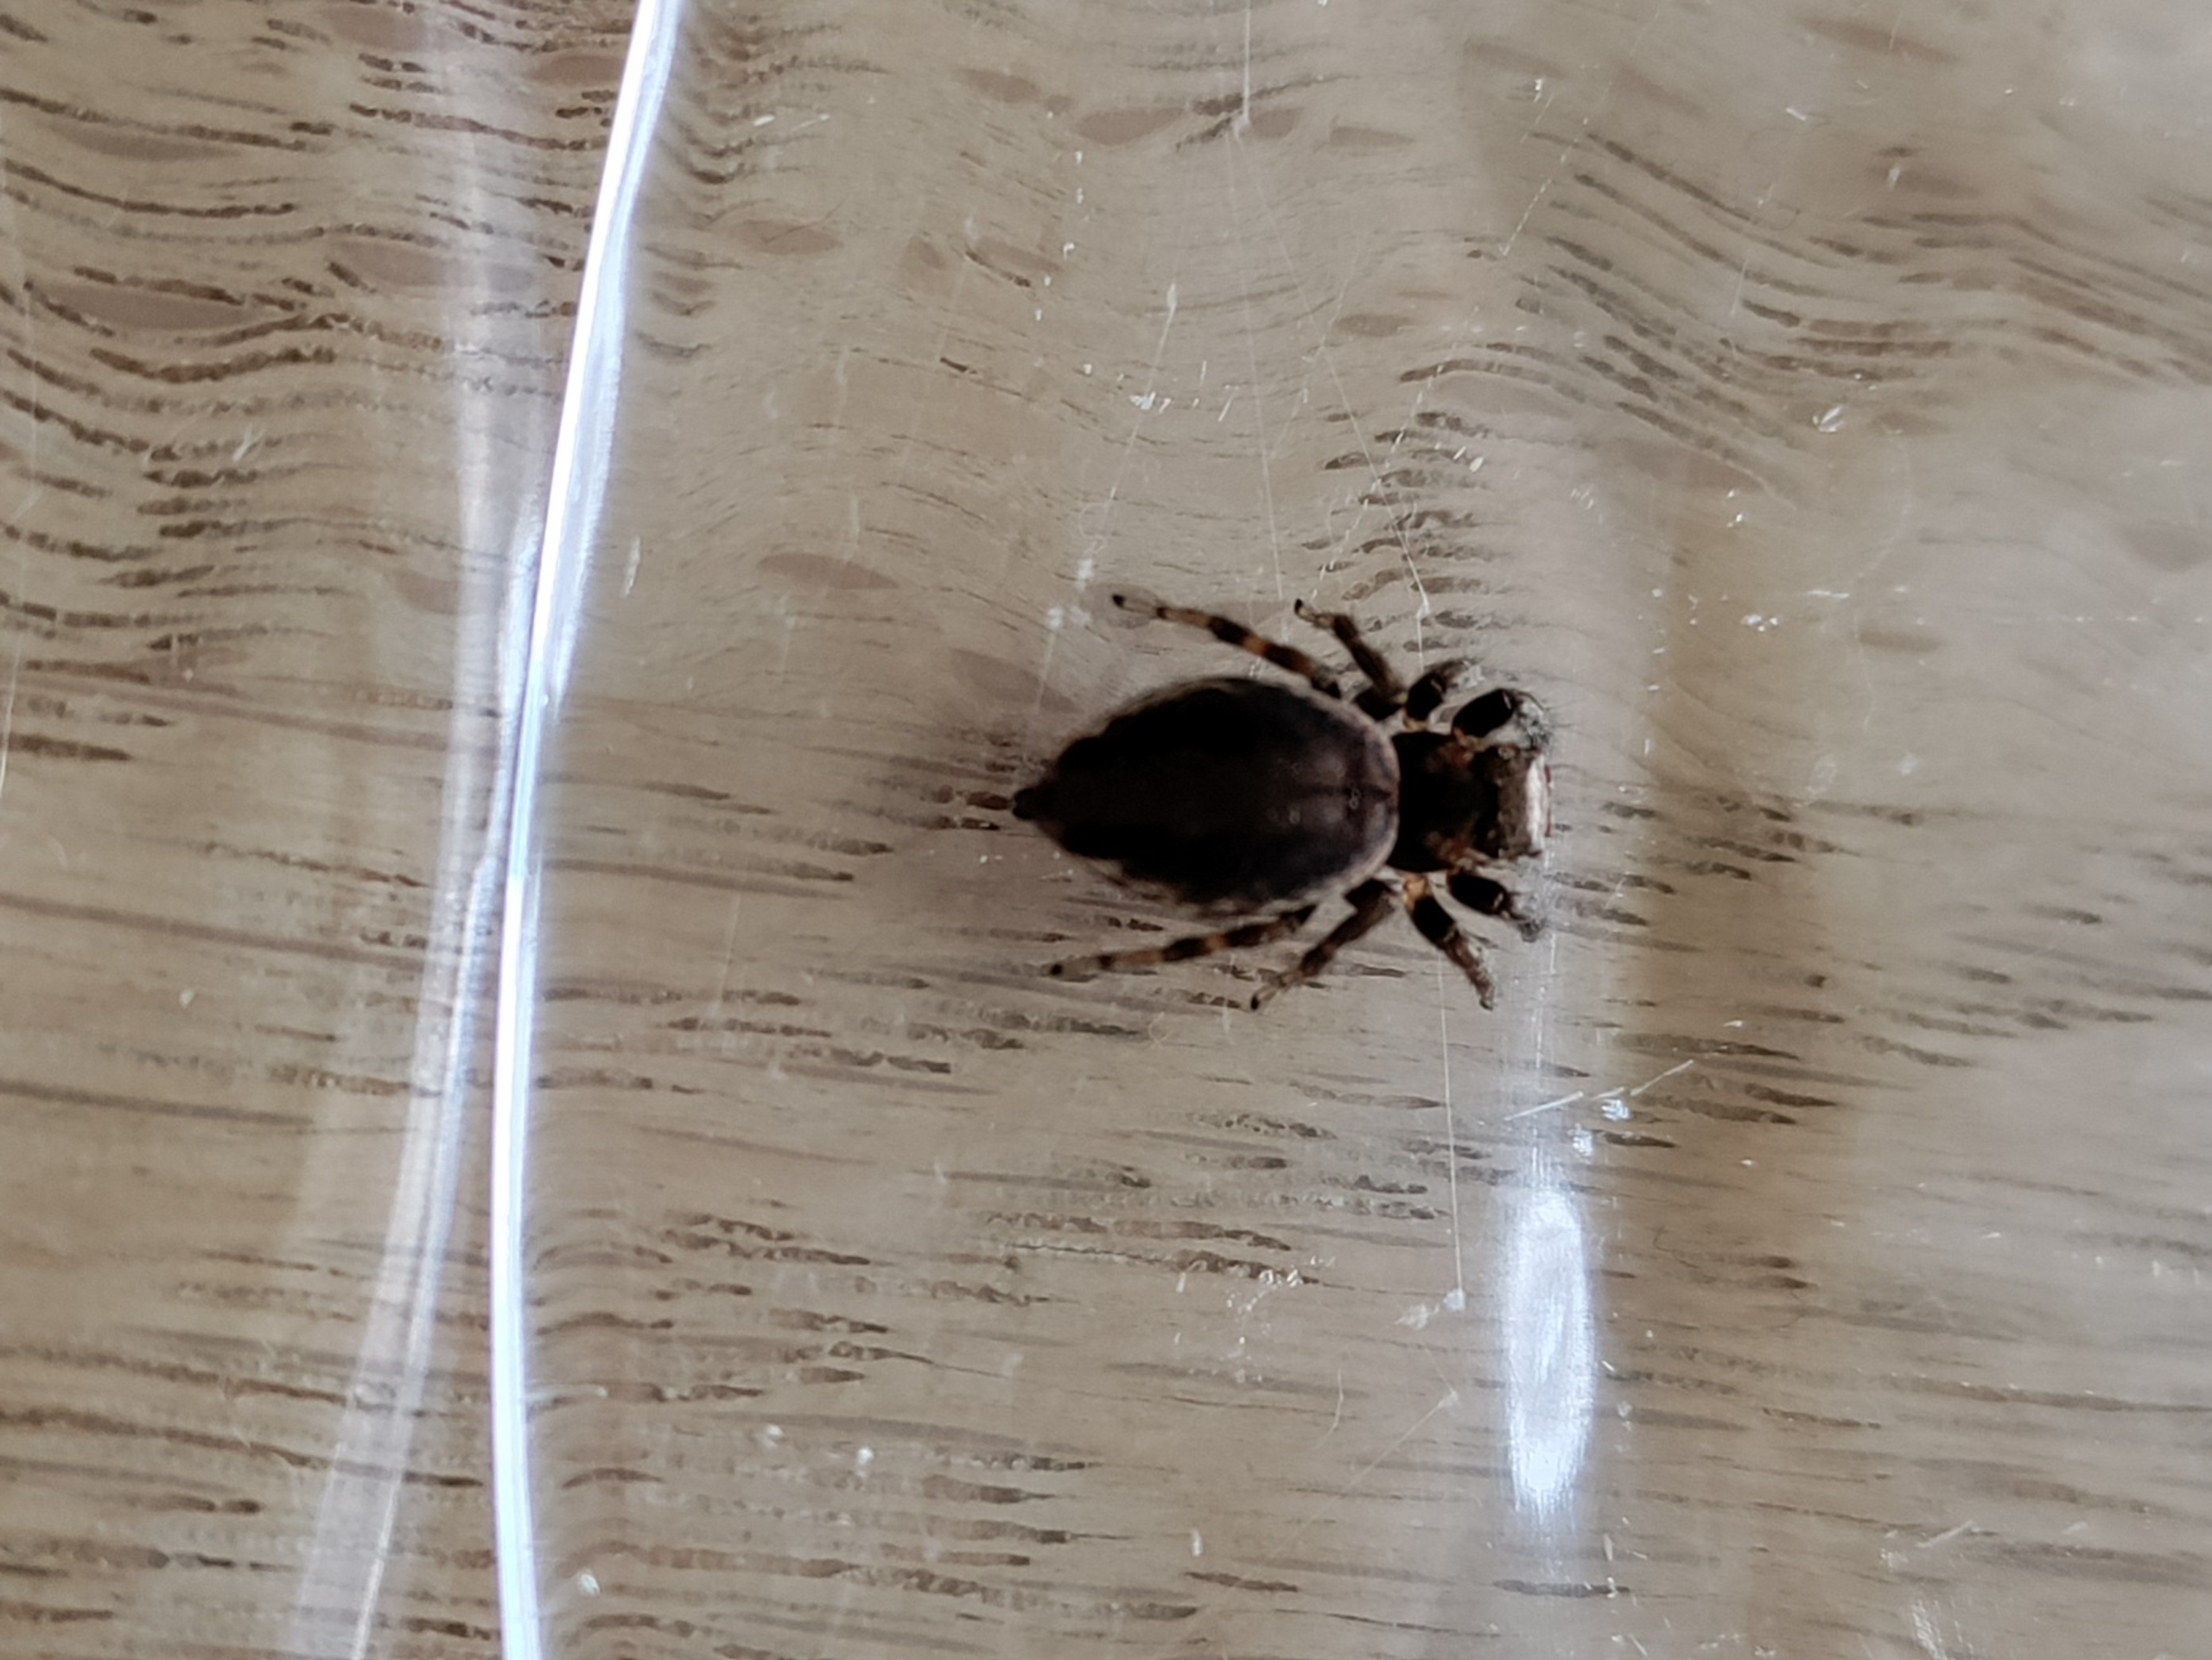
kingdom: Animalia
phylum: Arthropoda
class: Arachnida
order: Araneae
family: Salticidae
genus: Evarcha
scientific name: Evarcha falcata
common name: Broget springedderkop
